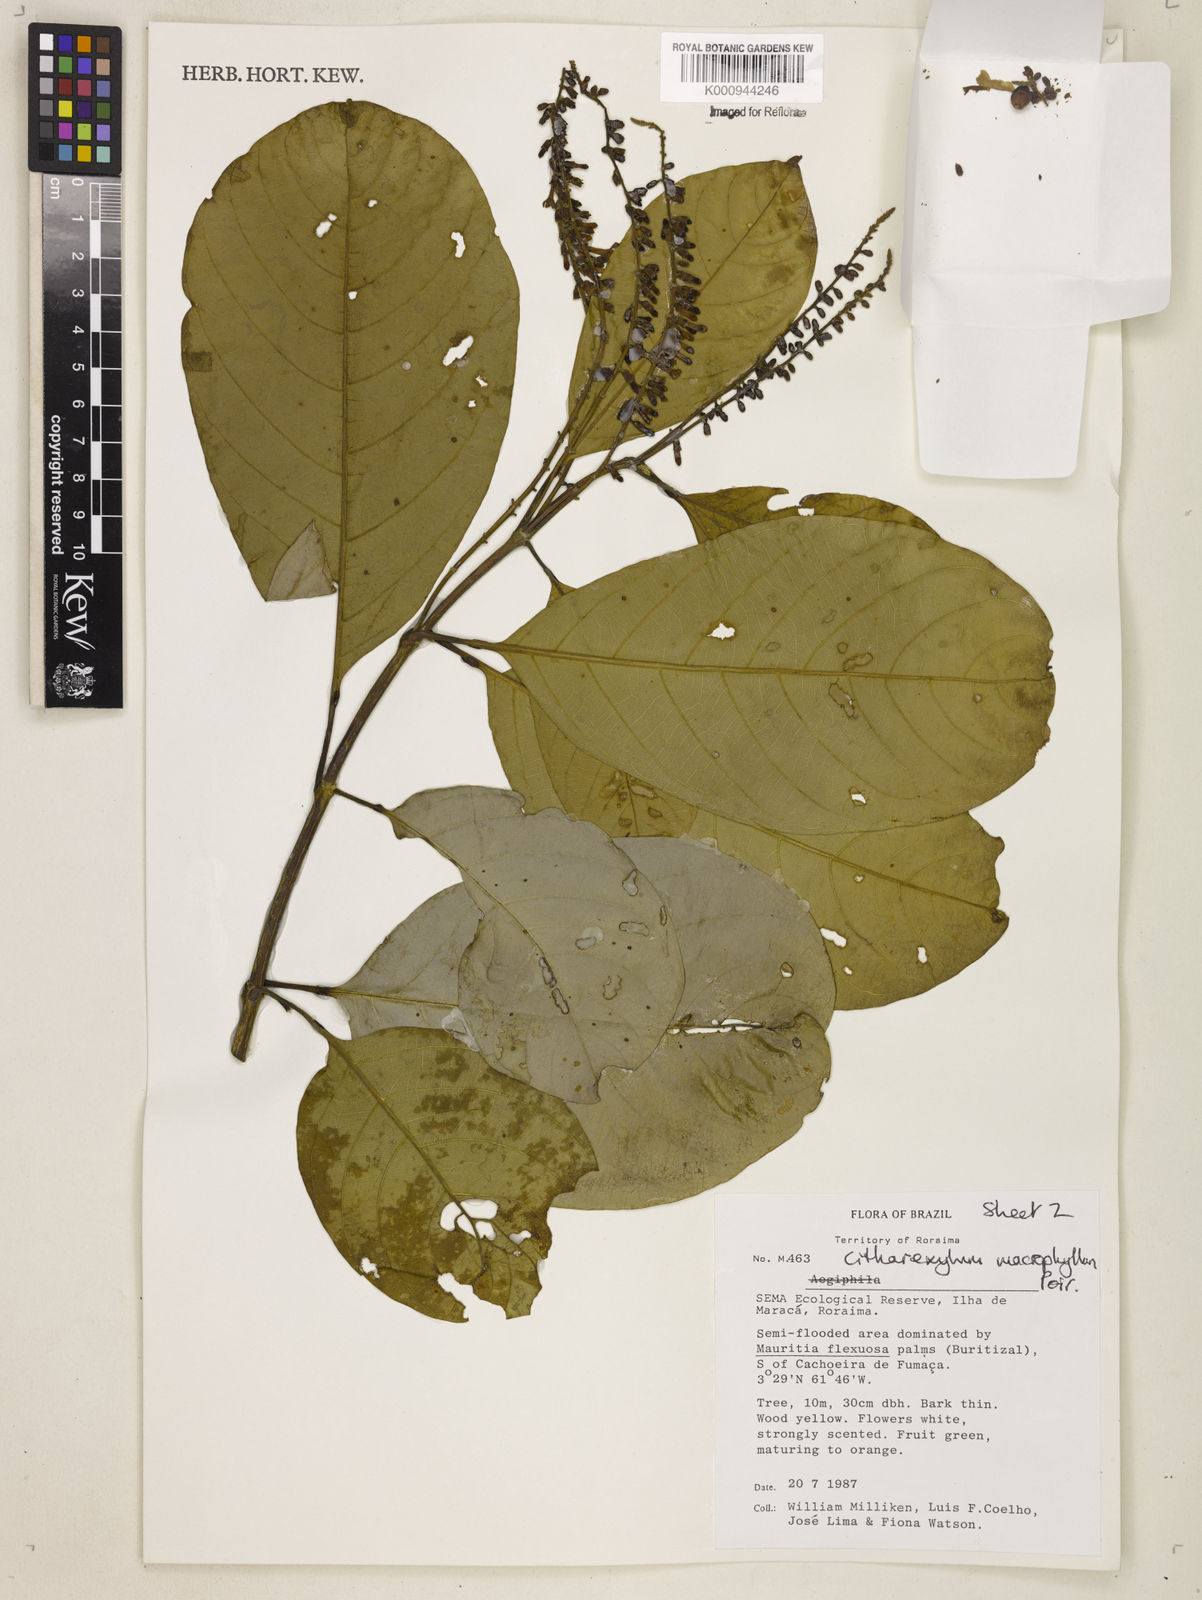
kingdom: Plantae
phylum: Tracheophyta
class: Magnoliopsida
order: Lamiales
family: Verbenaceae
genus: Citharexylum
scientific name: Citharexylum spinosum
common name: Fiddlewood
